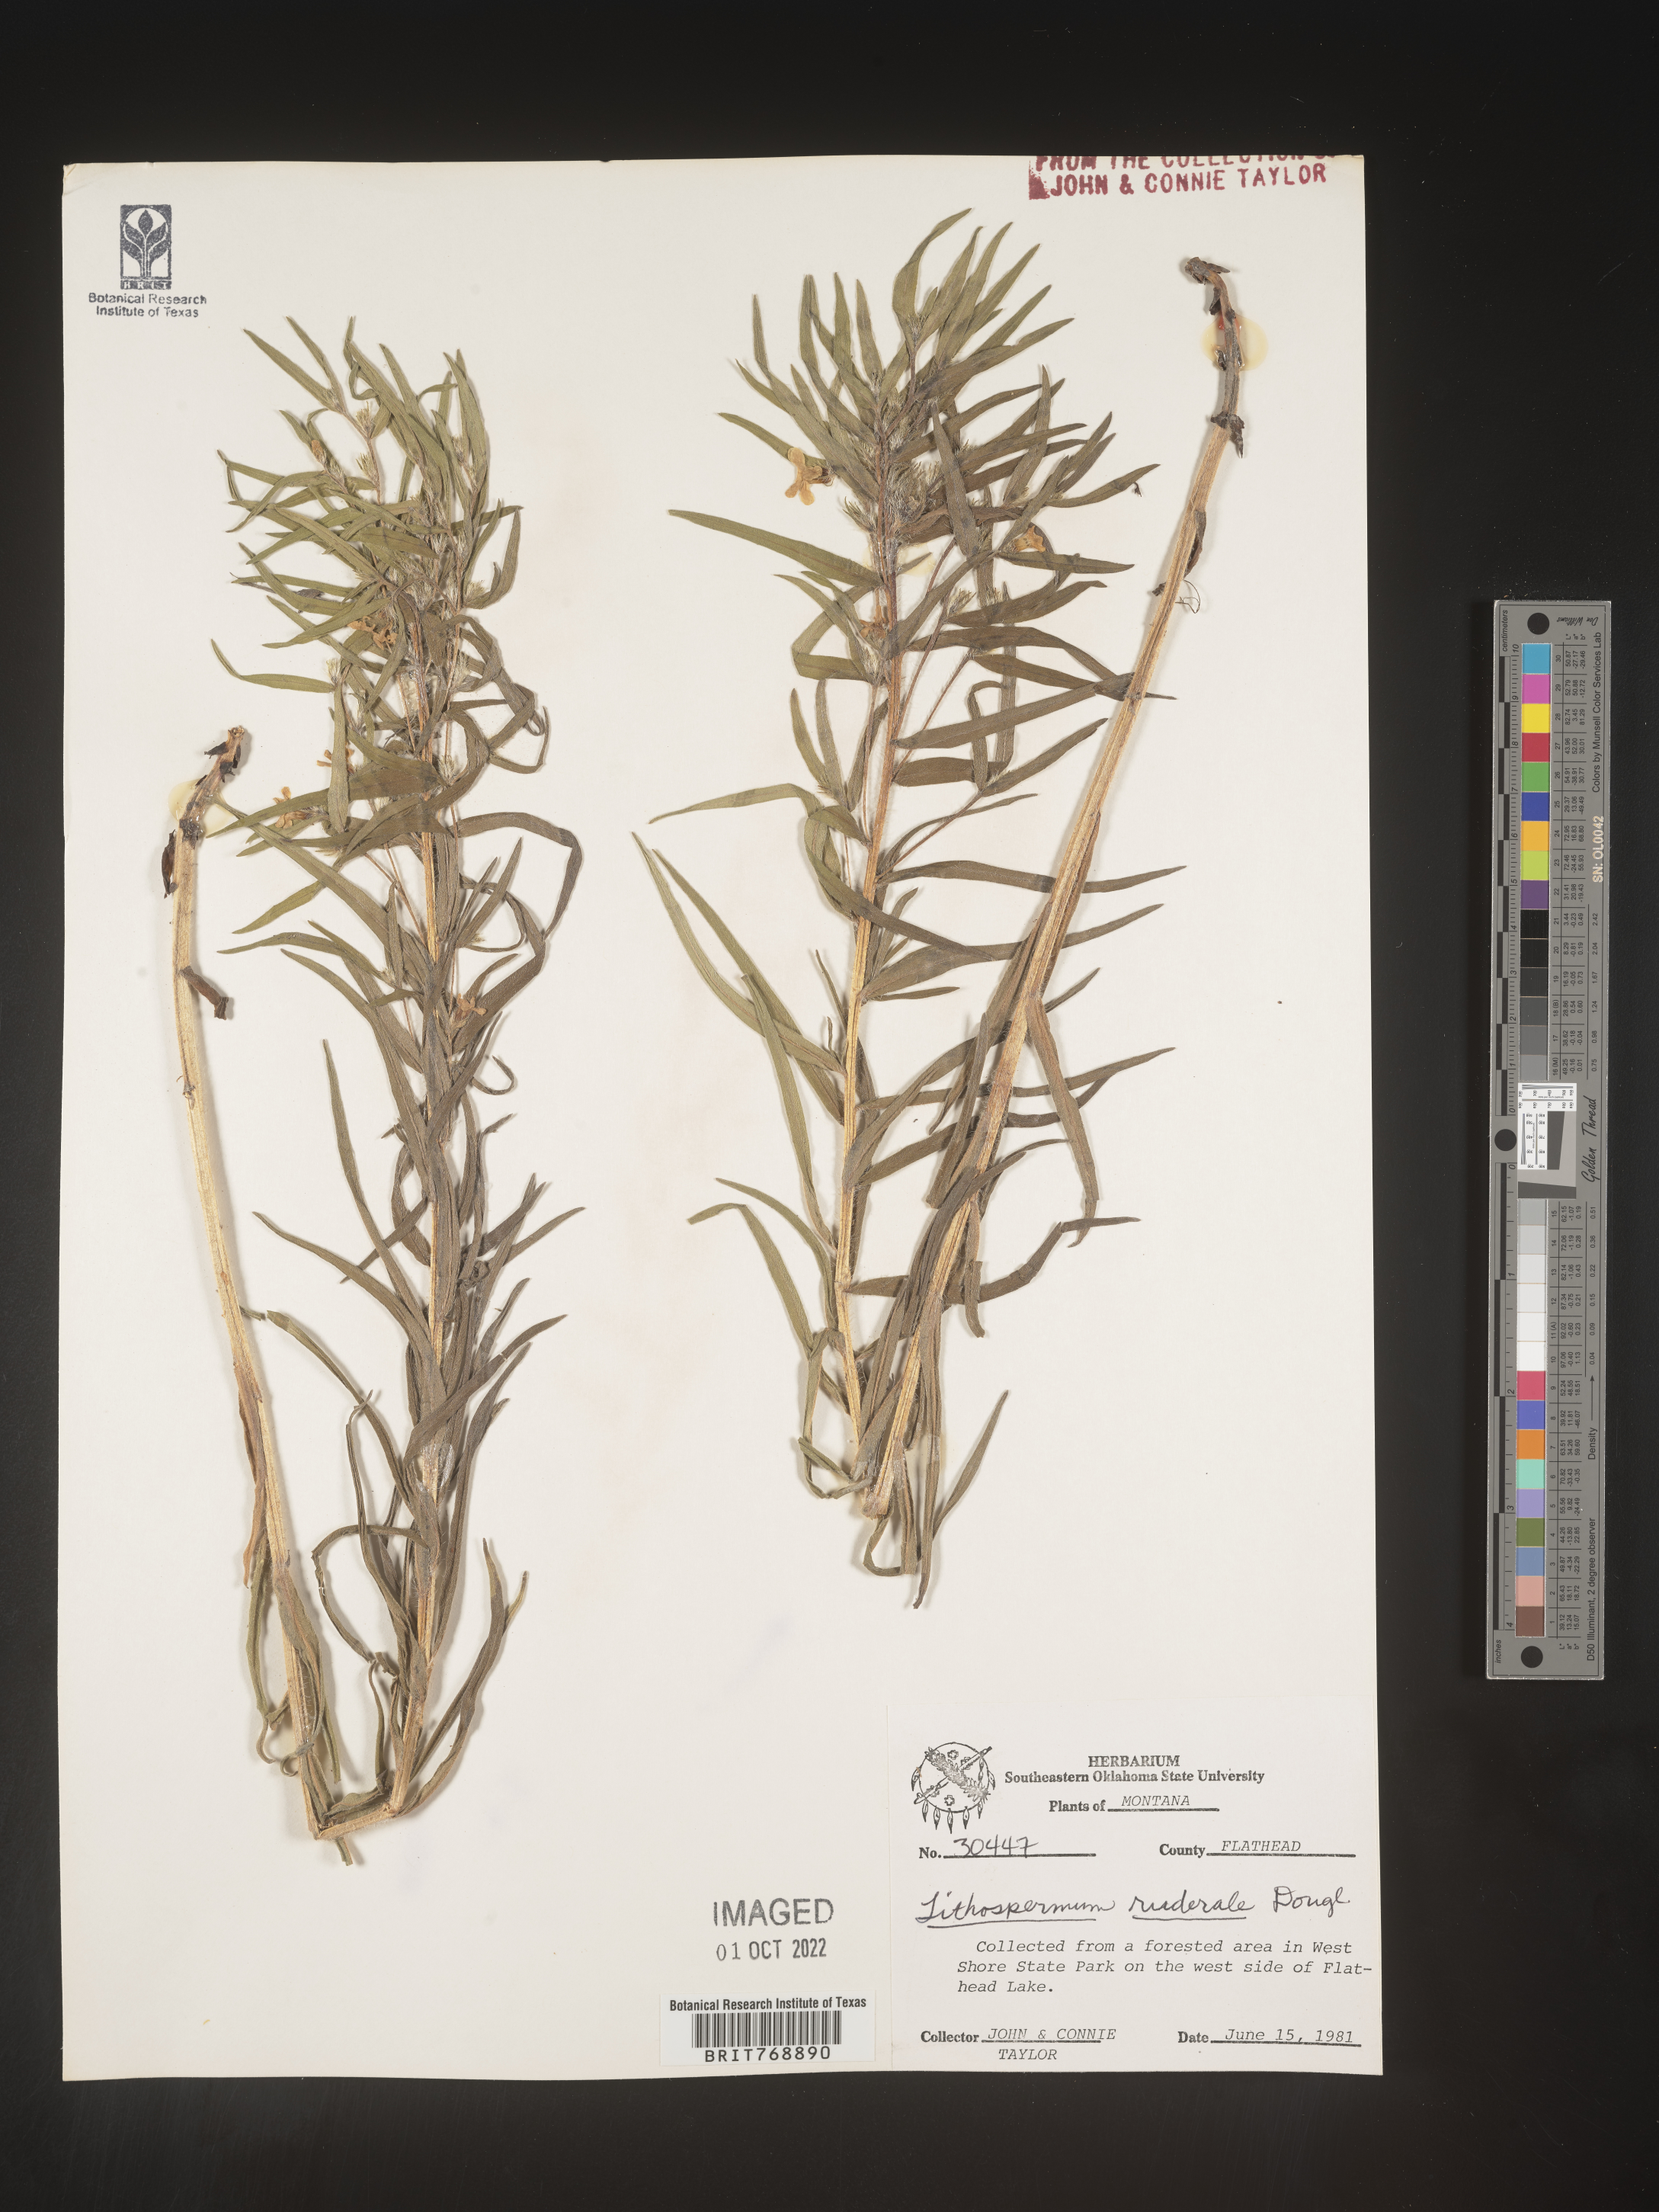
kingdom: Plantae
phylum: Tracheophyta
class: Magnoliopsida
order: Boraginales
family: Boraginaceae
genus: Lithospermum
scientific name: Lithospermum
